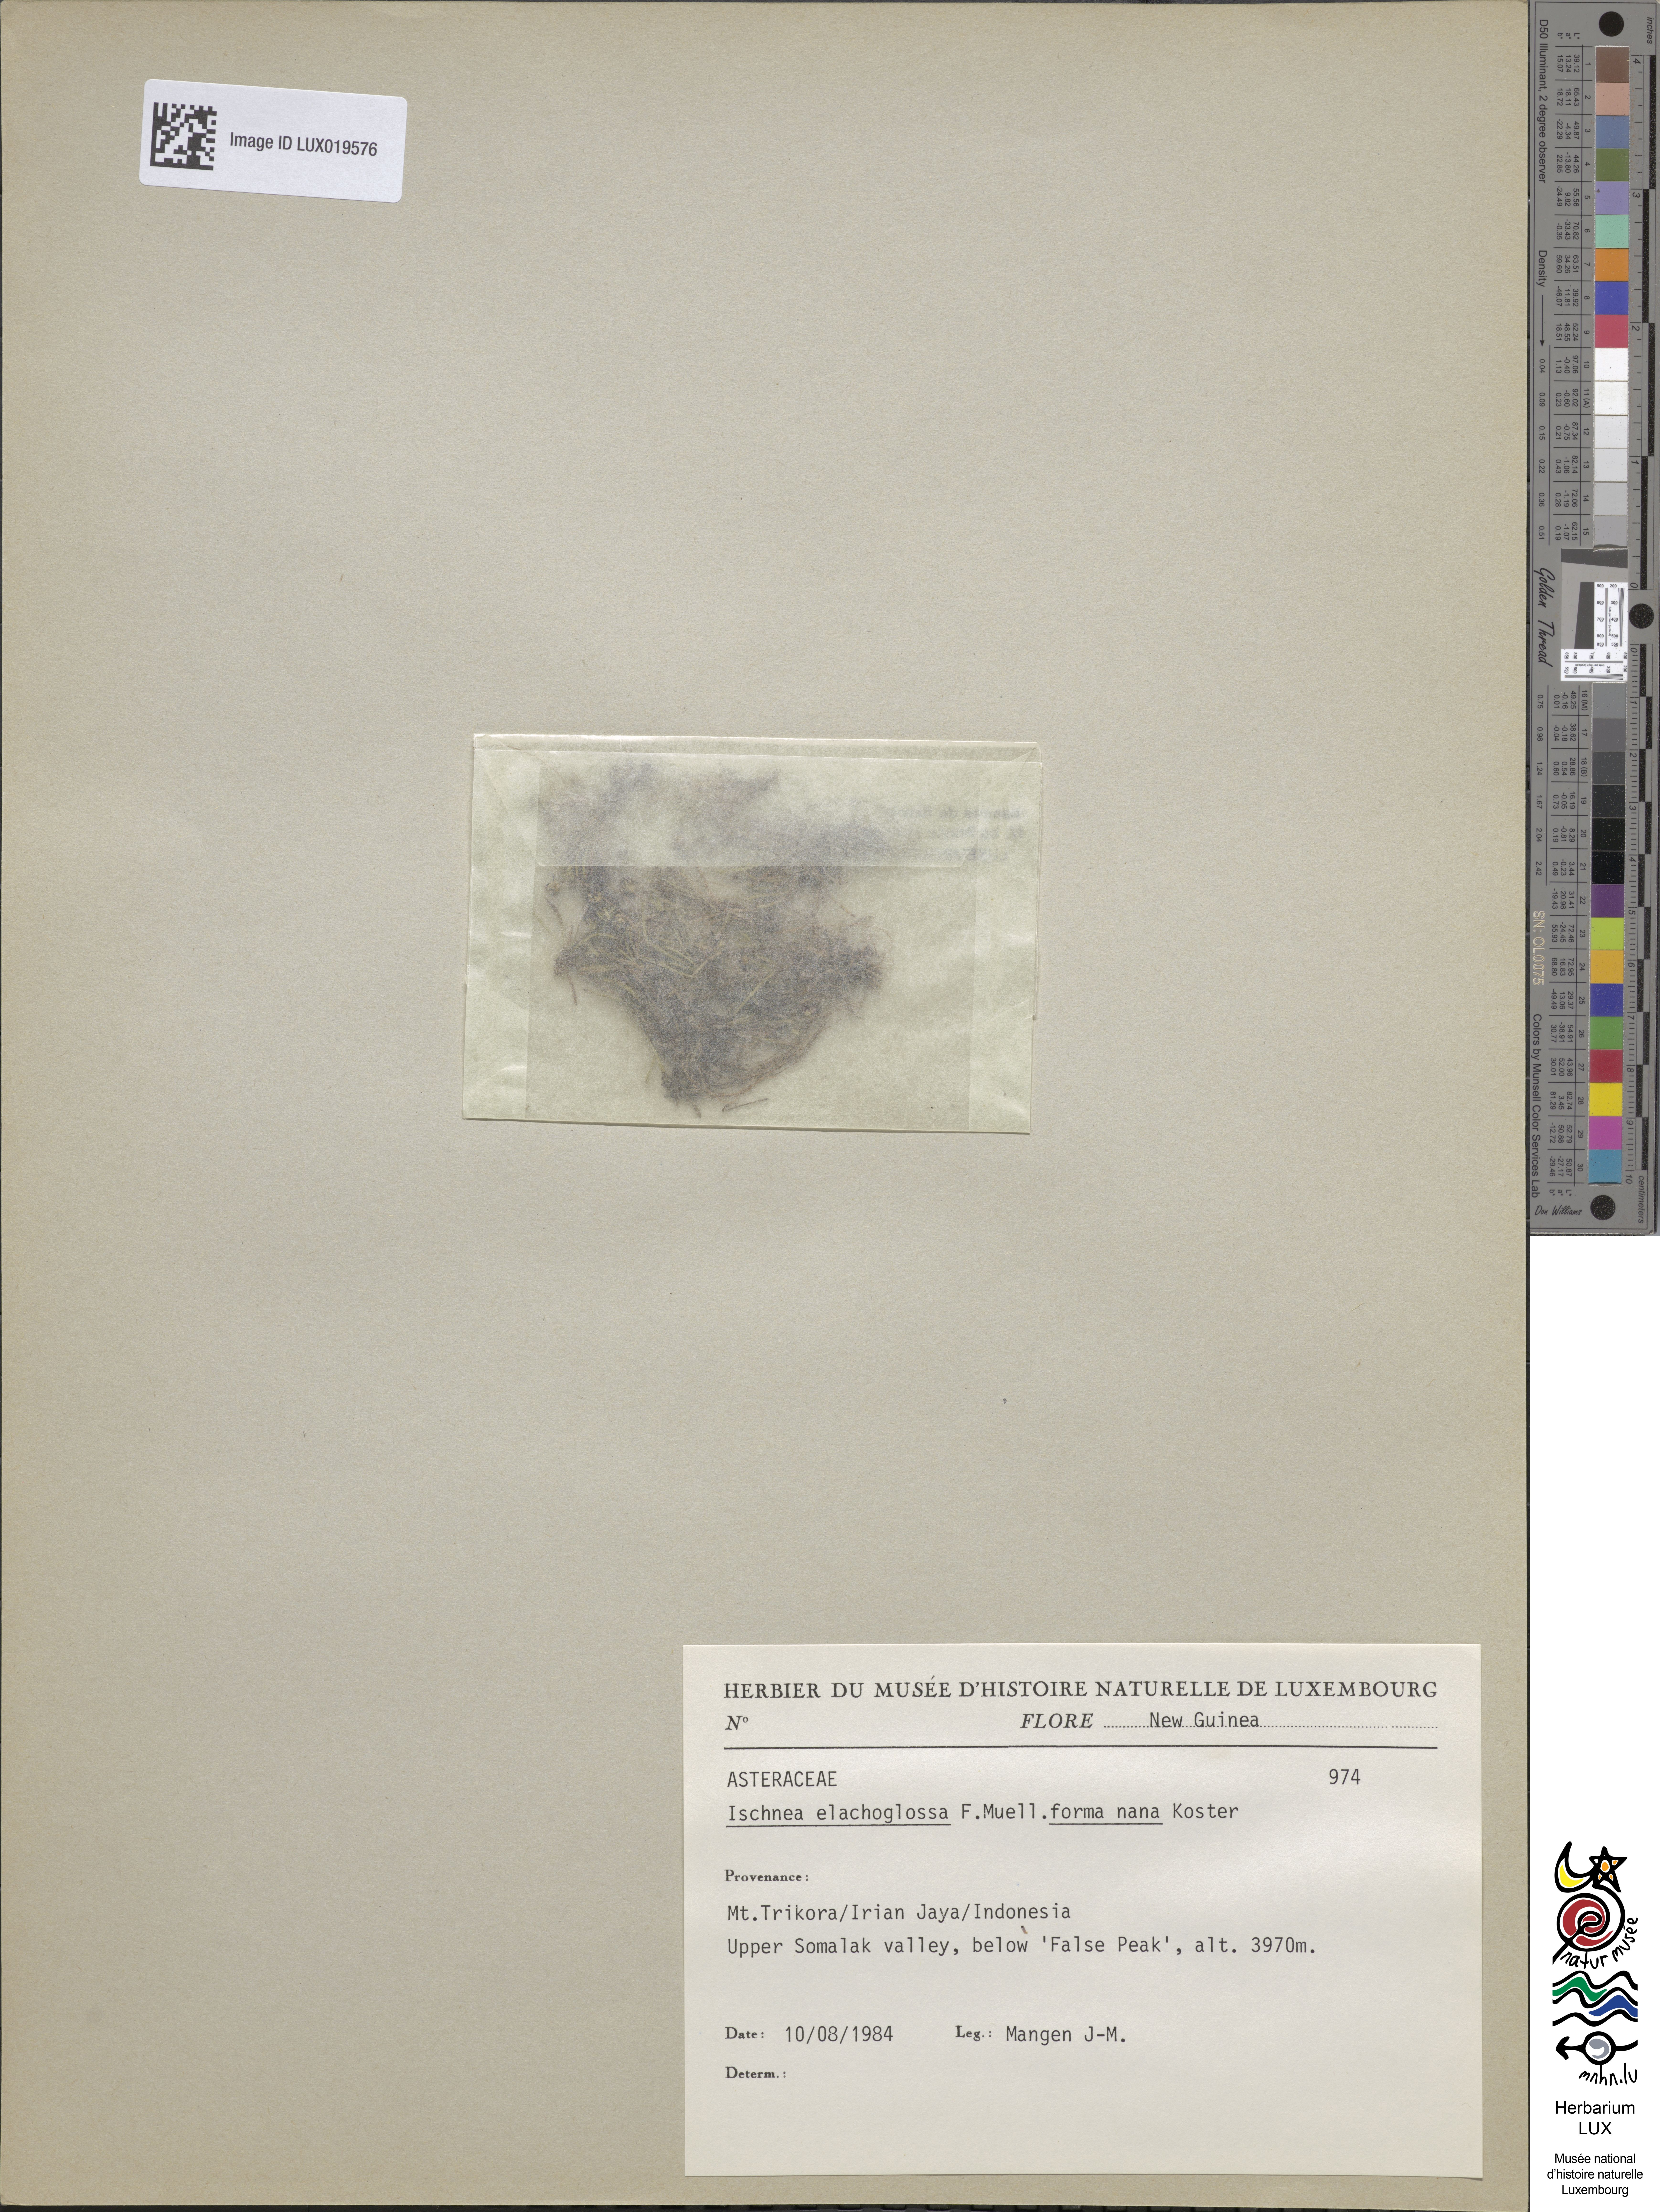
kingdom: Plantae
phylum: Tracheophyta
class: Magnoliopsida
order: Asterales
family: Asteraceae
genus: Ischnea
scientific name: Ischnea elachoglossa
